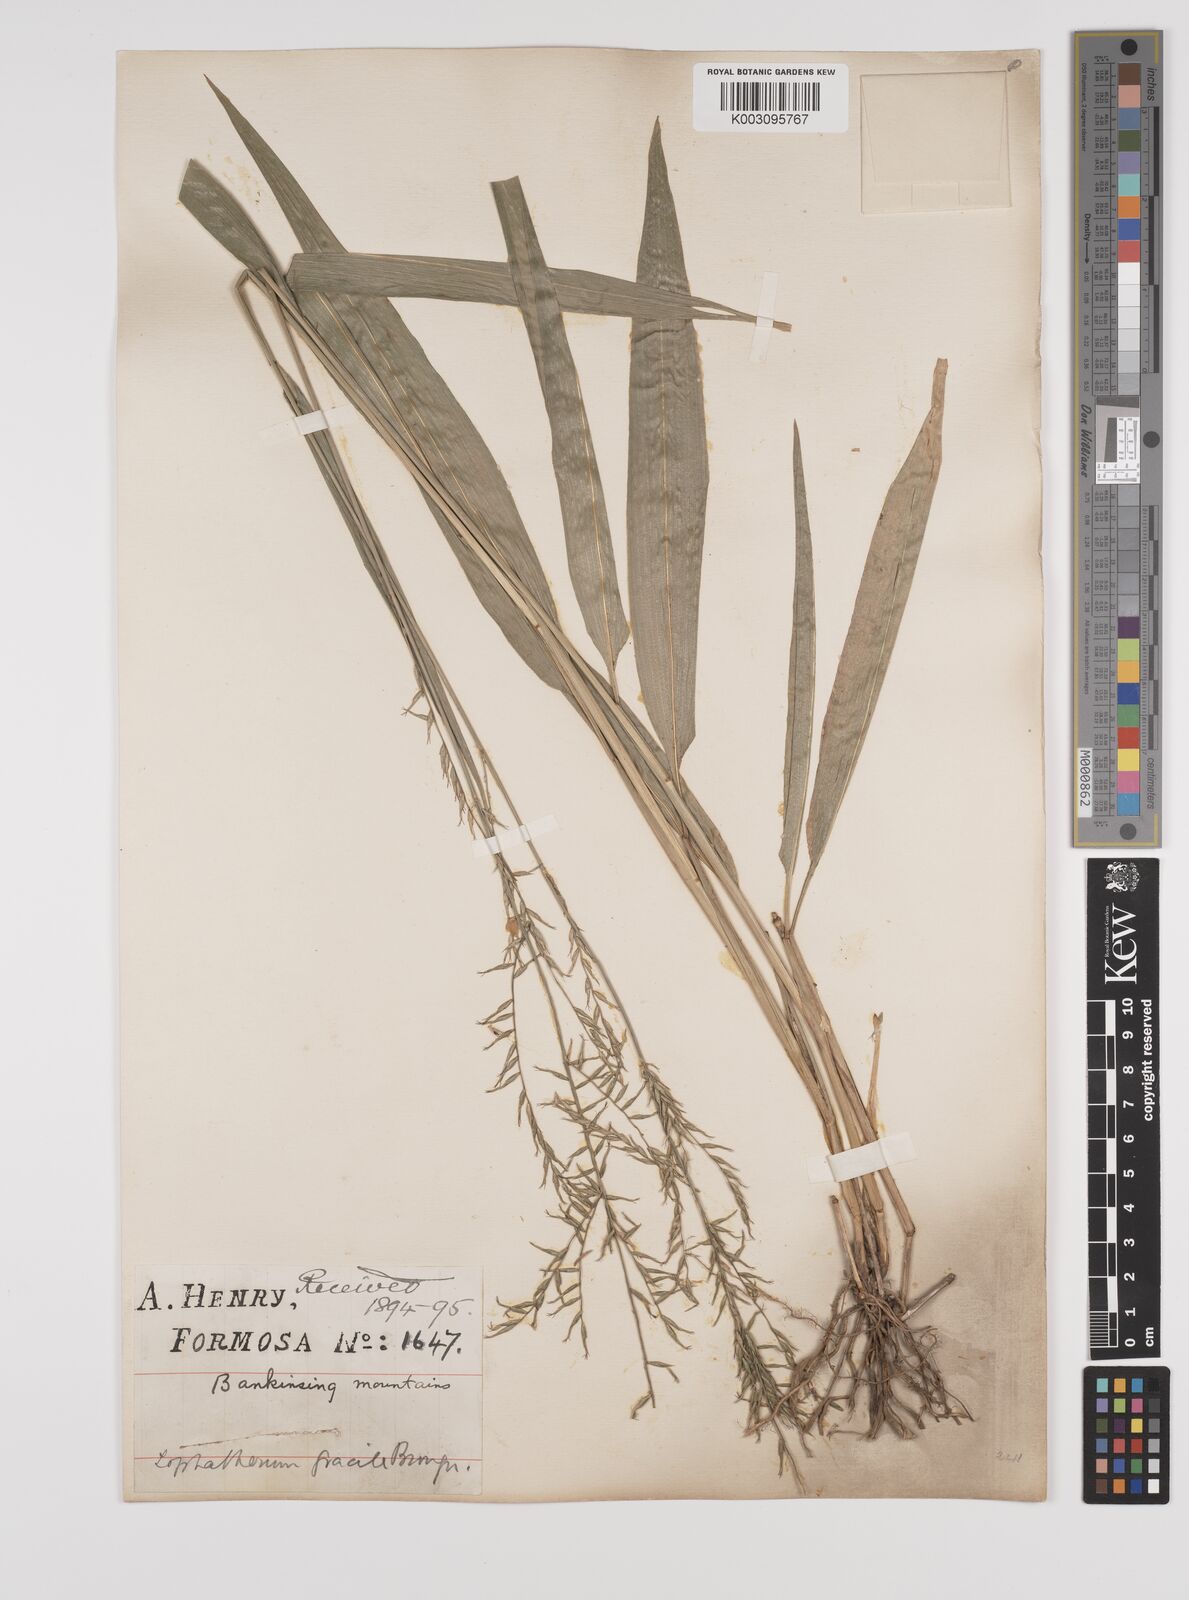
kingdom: Plantae
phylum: Tracheophyta
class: Liliopsida
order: Poales
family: Poaceae
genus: Lophatherum
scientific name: Lophatherum gracile
